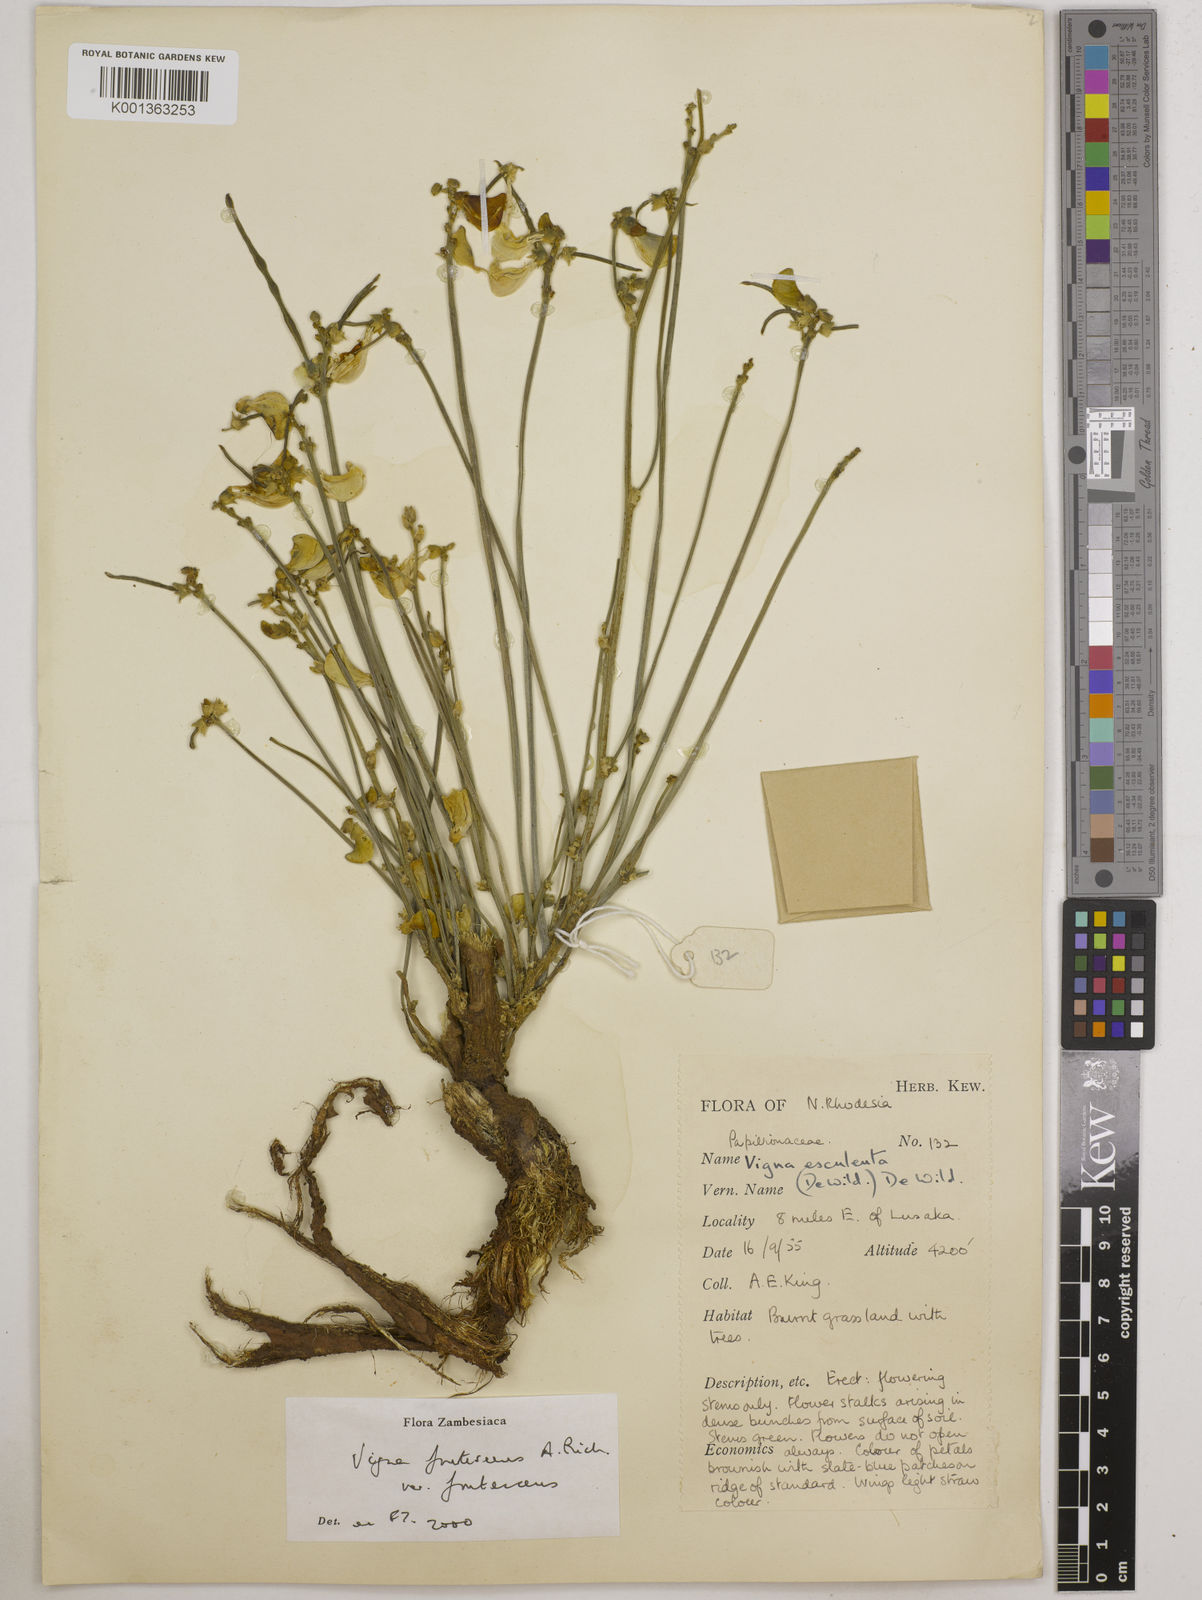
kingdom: Plantae
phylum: Tracheophyta
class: Magnoliopsida
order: Fabales
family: Fabaceae
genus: Vigna
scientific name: Vigna
